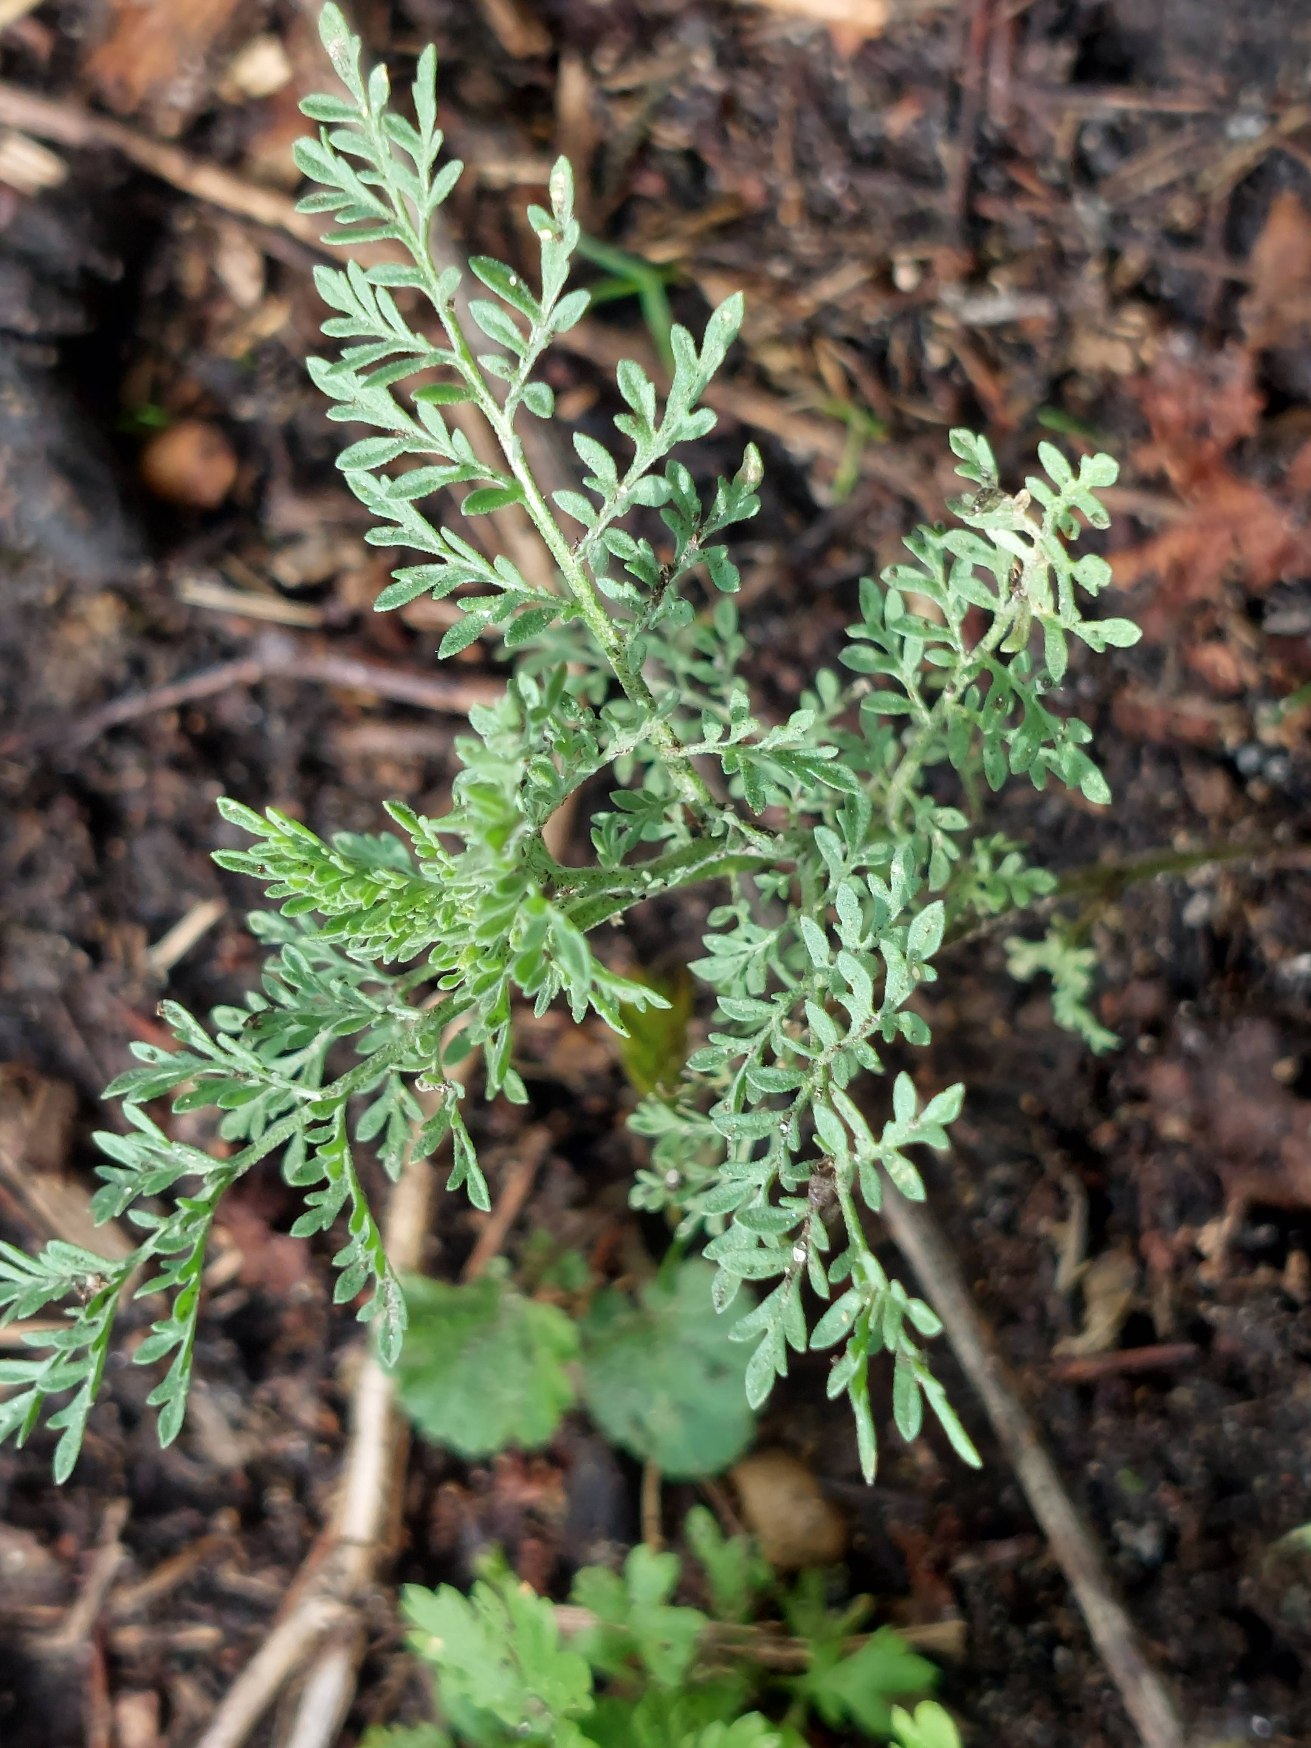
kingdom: Plantae
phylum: Tracheophyta
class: Magnoliopsida
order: Brassicales
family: Brassicaceae
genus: Descurainia
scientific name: Descurainia sophia
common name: Finbladet vejsennep
